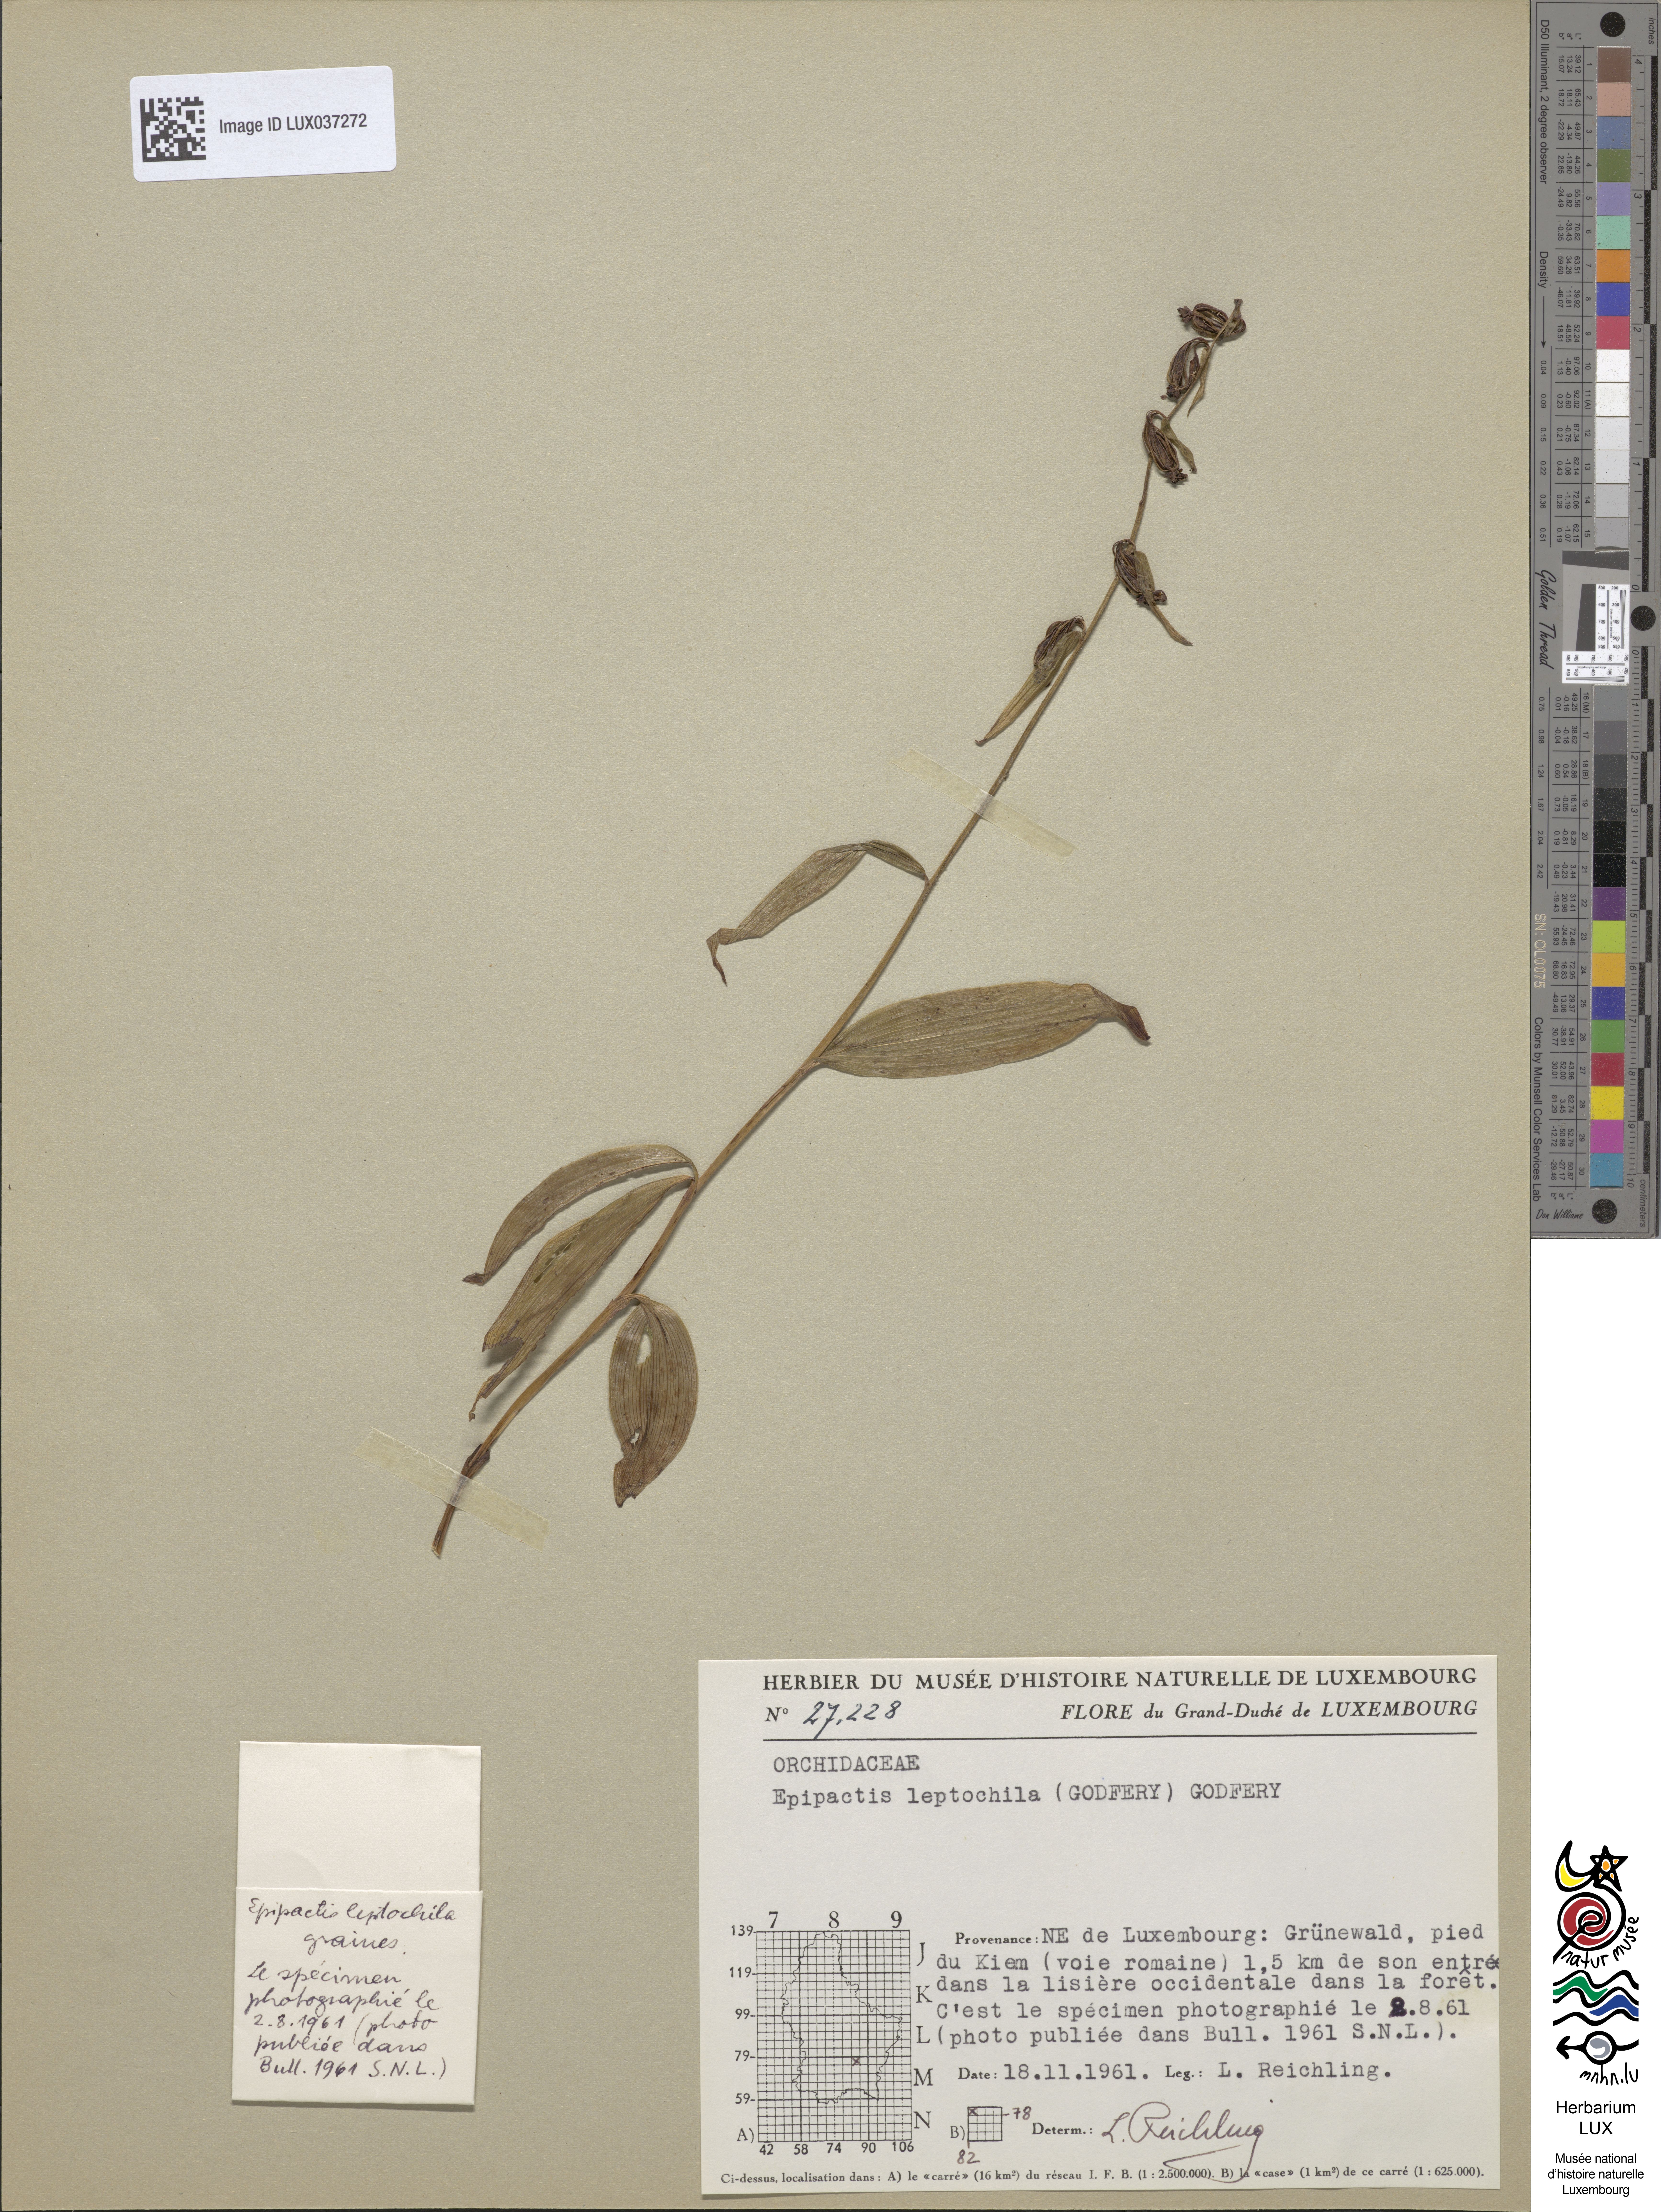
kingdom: Plantae
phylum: Tracheophyta
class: Liliopsida
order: Asparagales
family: Orchidaceae
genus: Epipactis
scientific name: Epipactis leptochila
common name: Narrow-lipped helleborine
